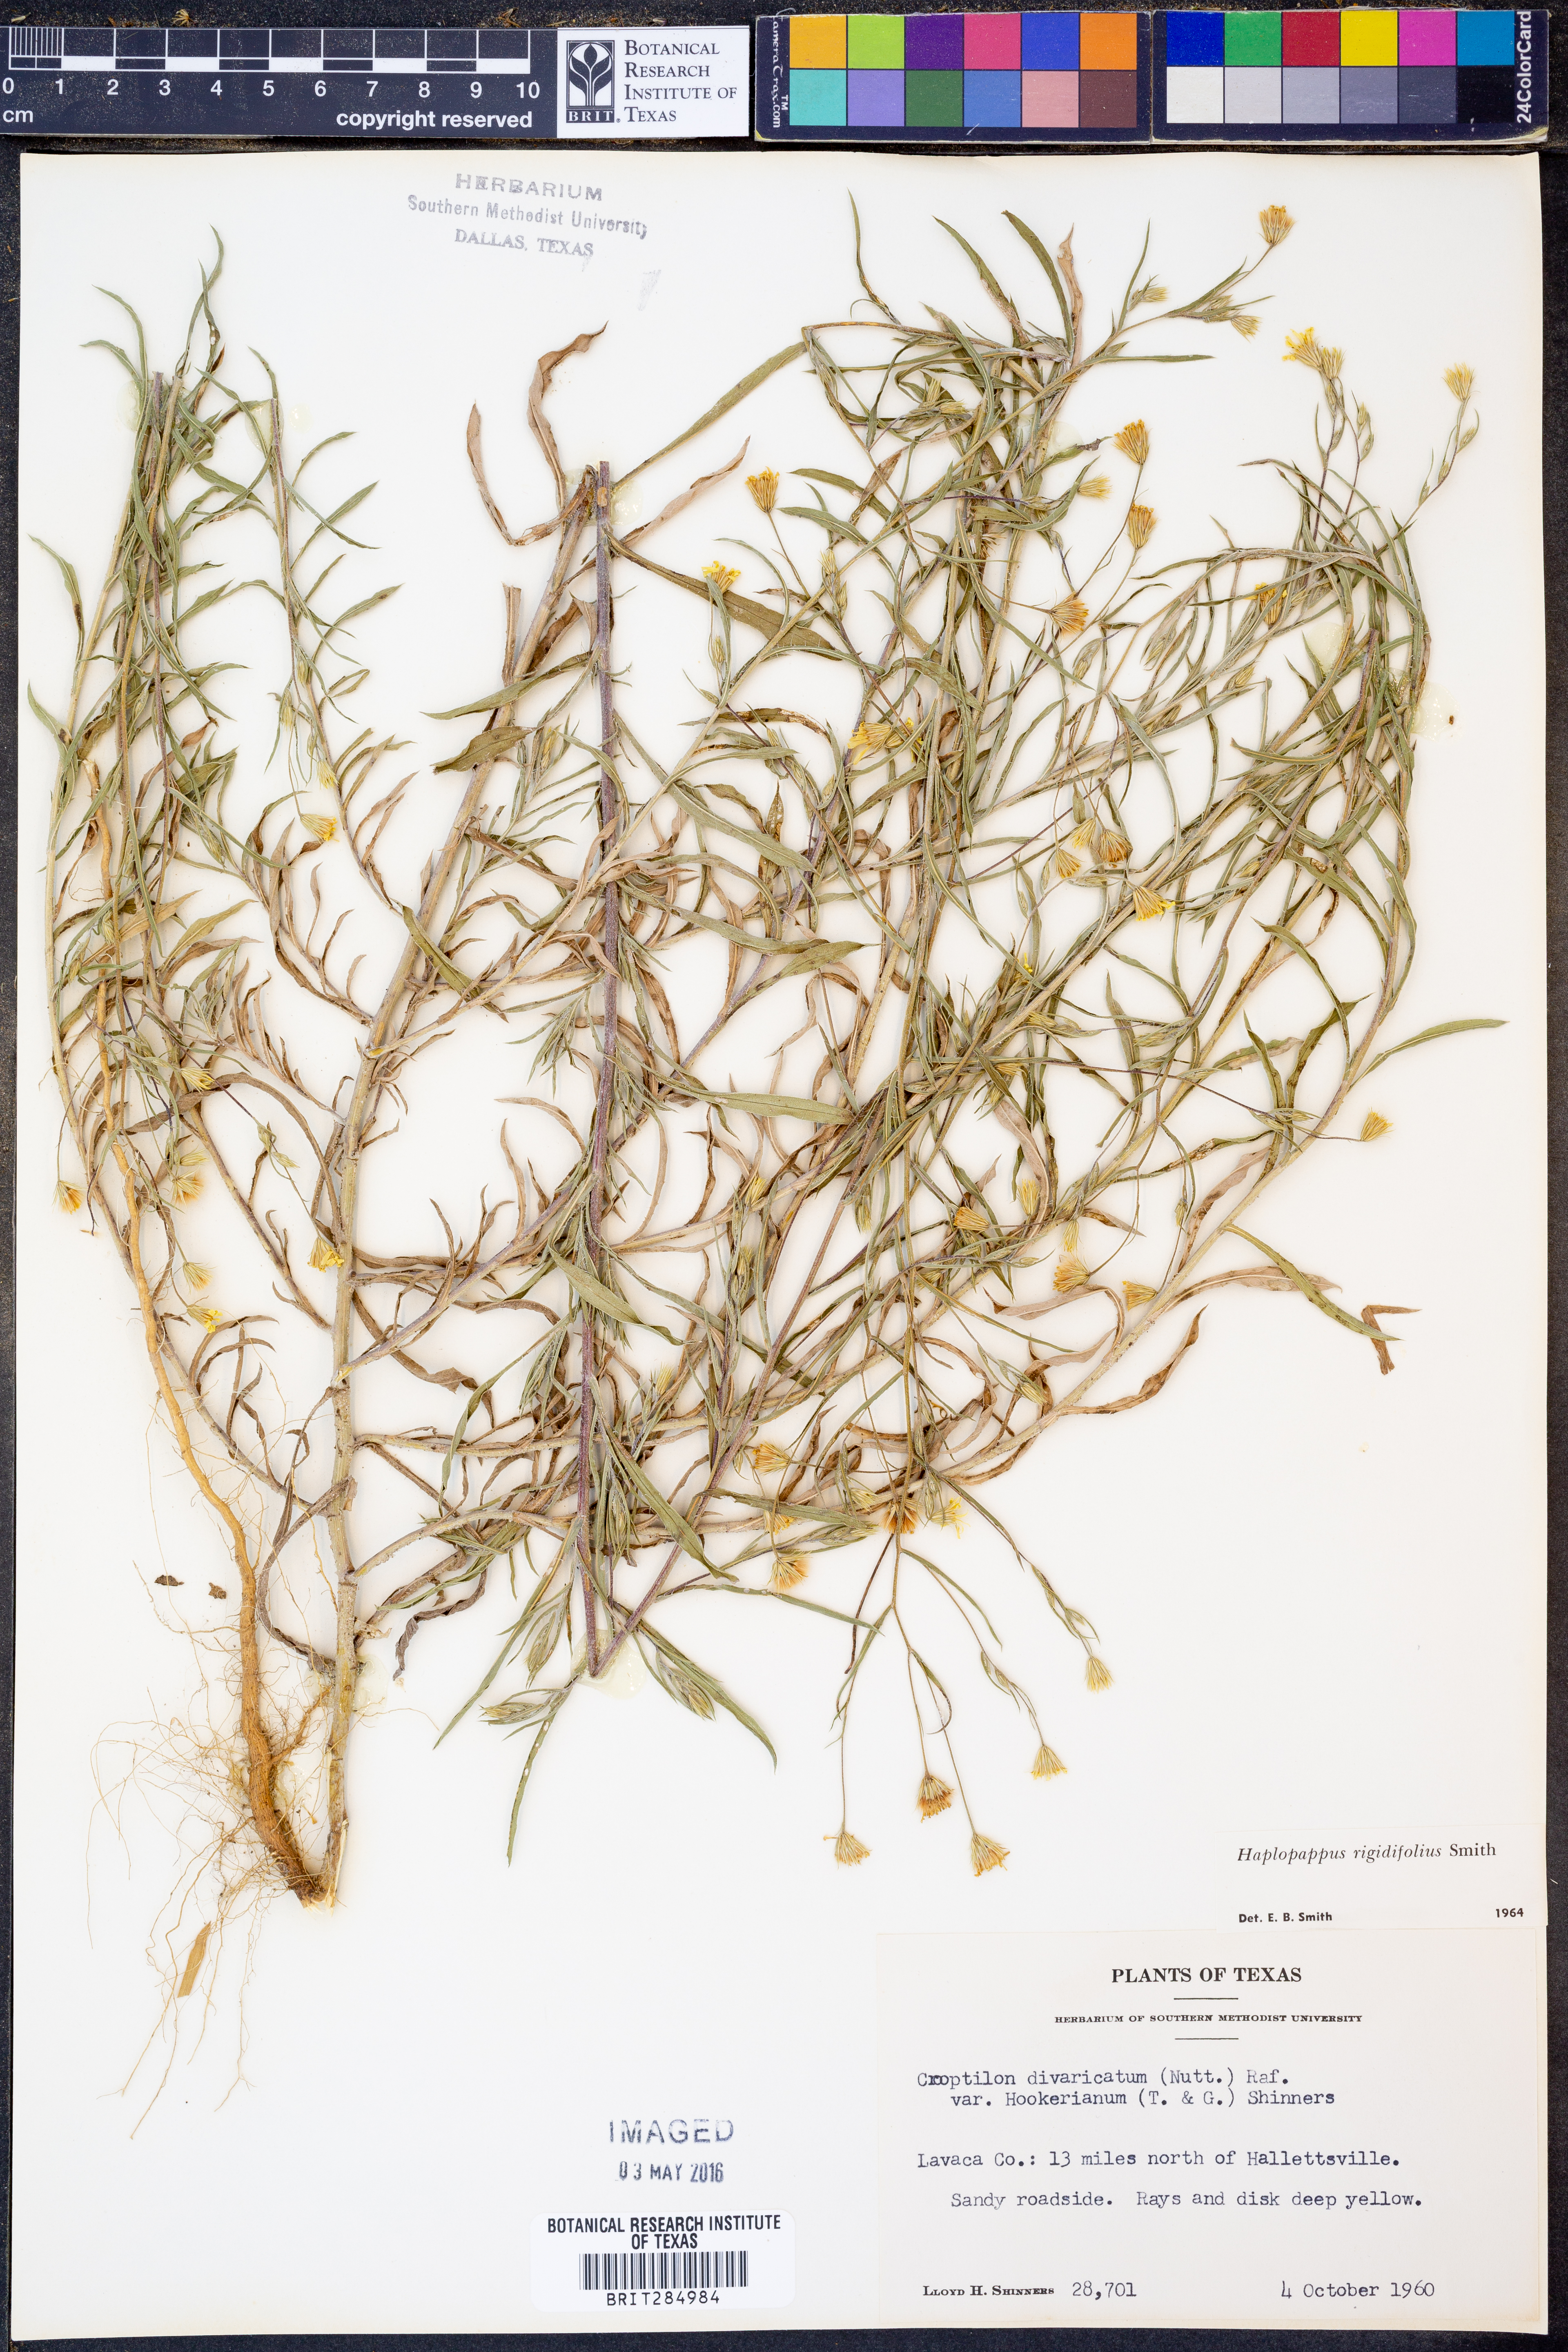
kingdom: Plantae
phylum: Tracheophyta
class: Magnoliopsida
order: Asterales
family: Asteraceae
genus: Croptilon
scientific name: Croptilon rigidifolium
